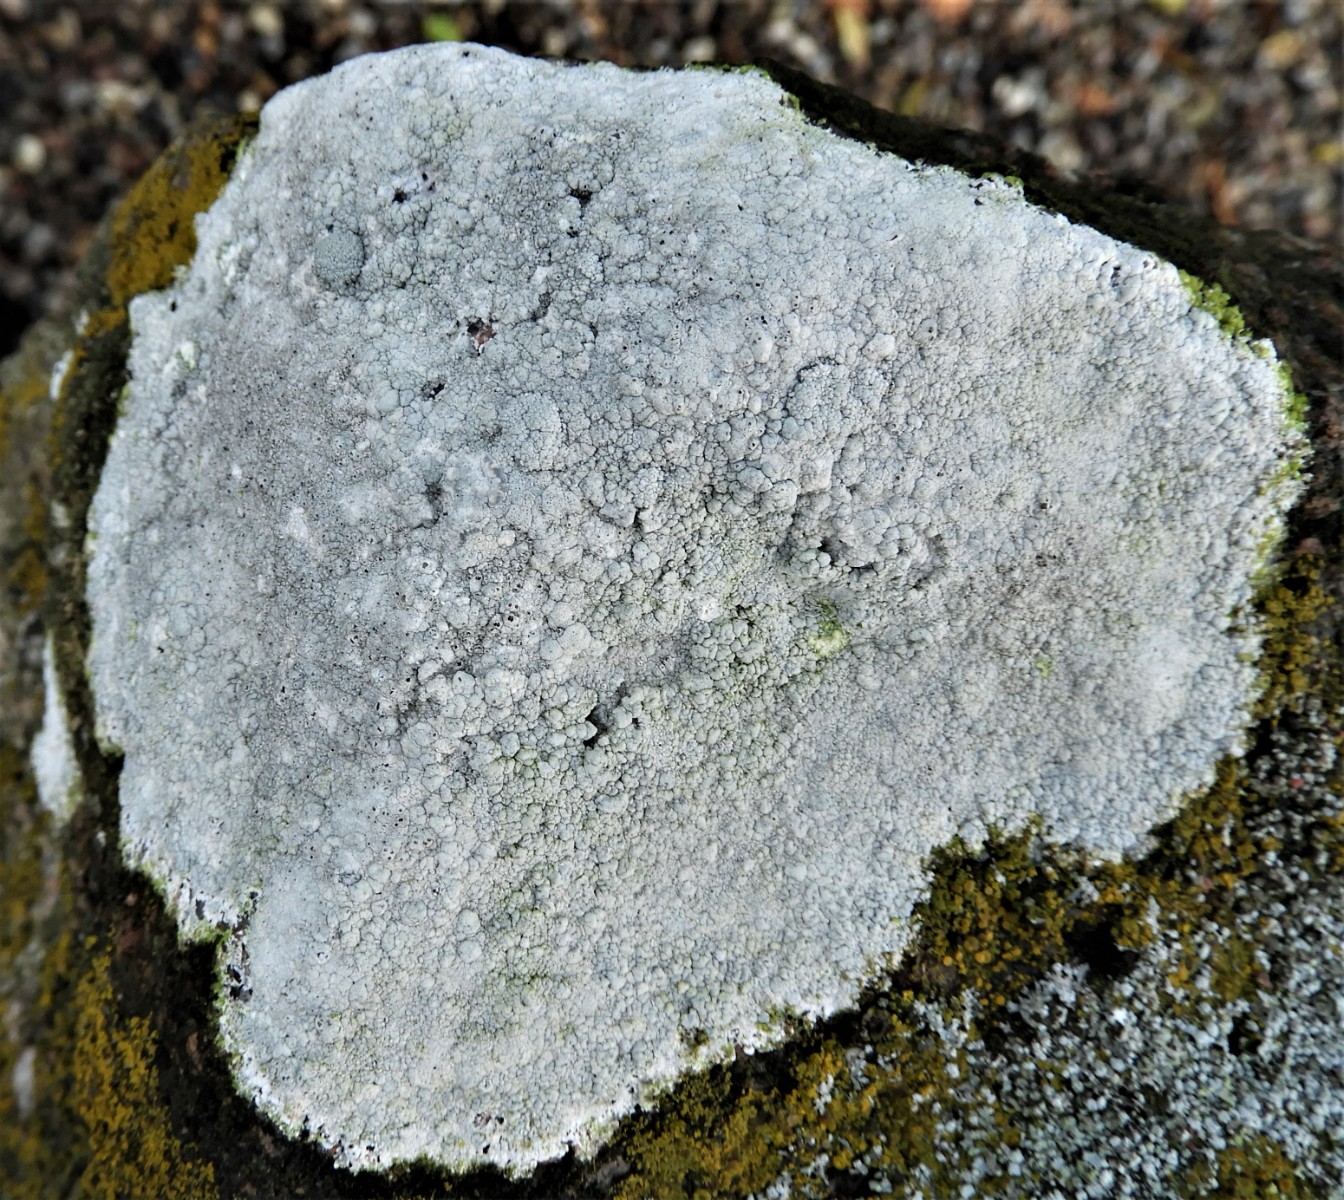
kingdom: Fungi
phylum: Ascomycota
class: Lecanoromycetes
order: Lecanorales
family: Lecanoraceae
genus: Glaucomaria
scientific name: Glaucomaria rupicola
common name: stengærde-kantskivelav
